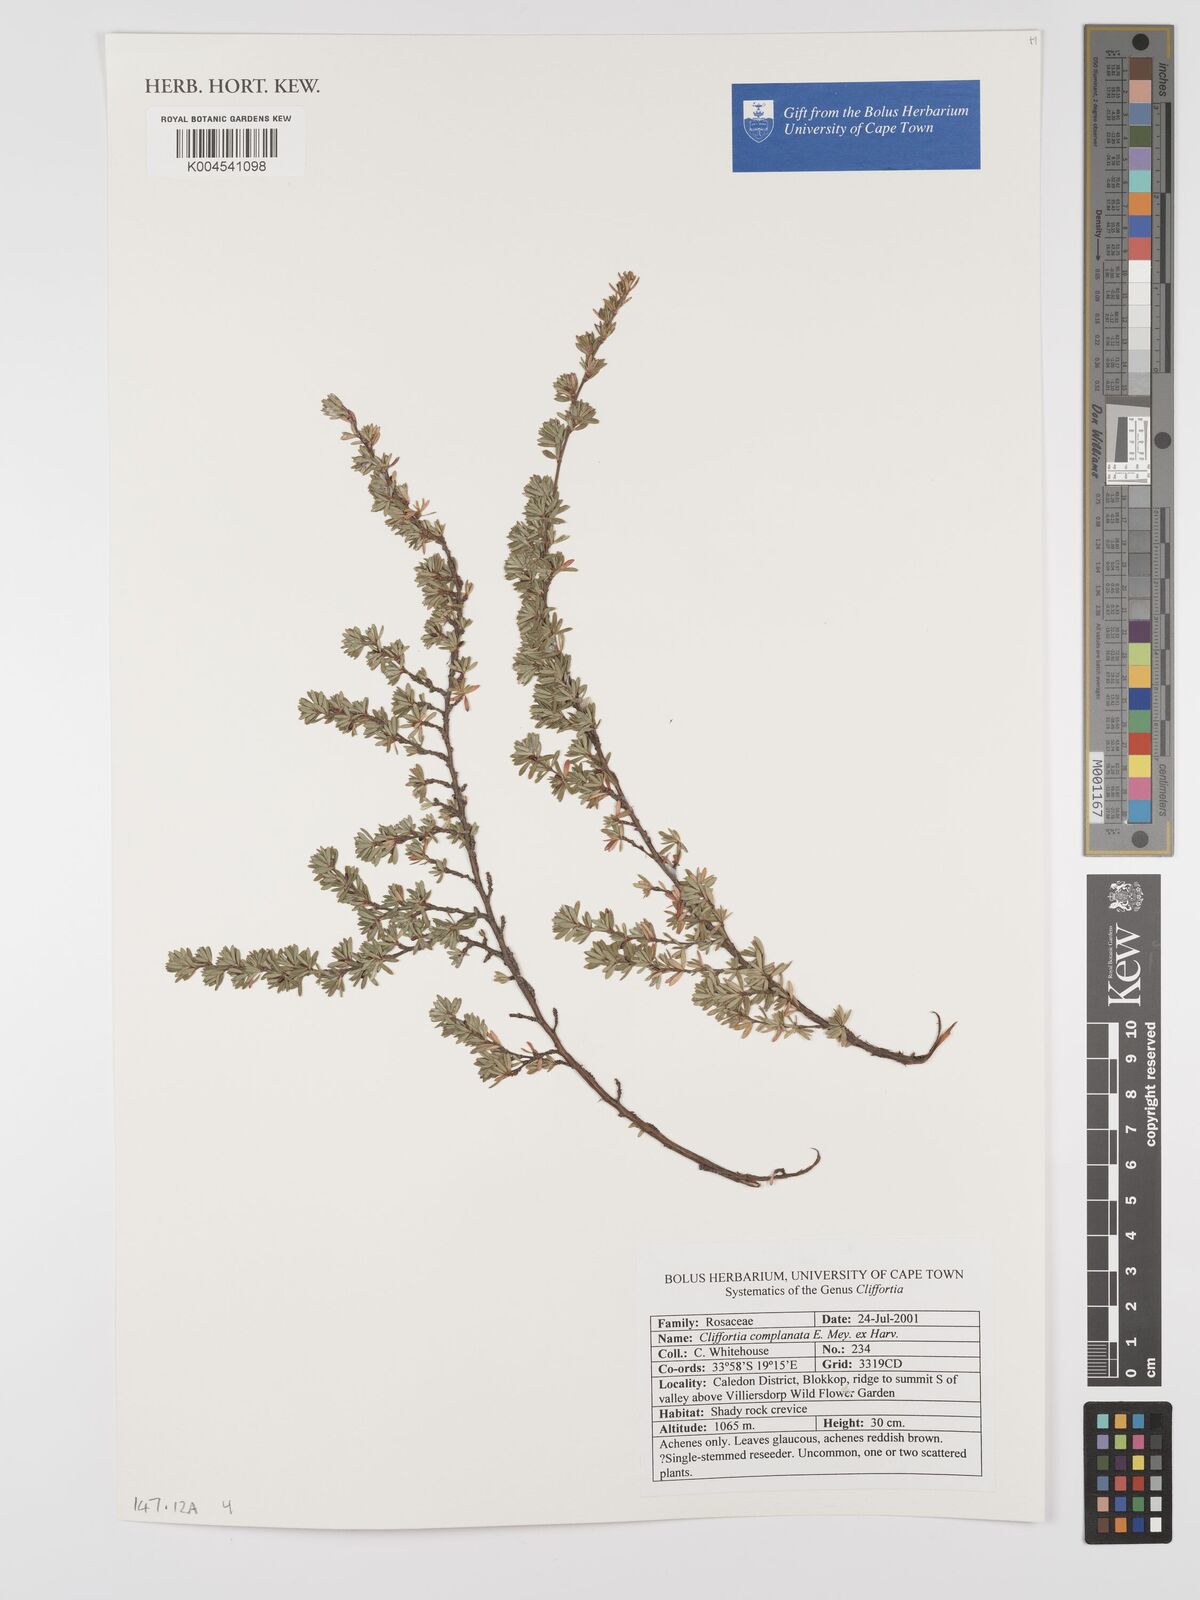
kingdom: Plantae
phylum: Tracheophyta
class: Magnoliopsida
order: Rosales
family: Rosaceae
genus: Cliffortia
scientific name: Cliffortia complanata
